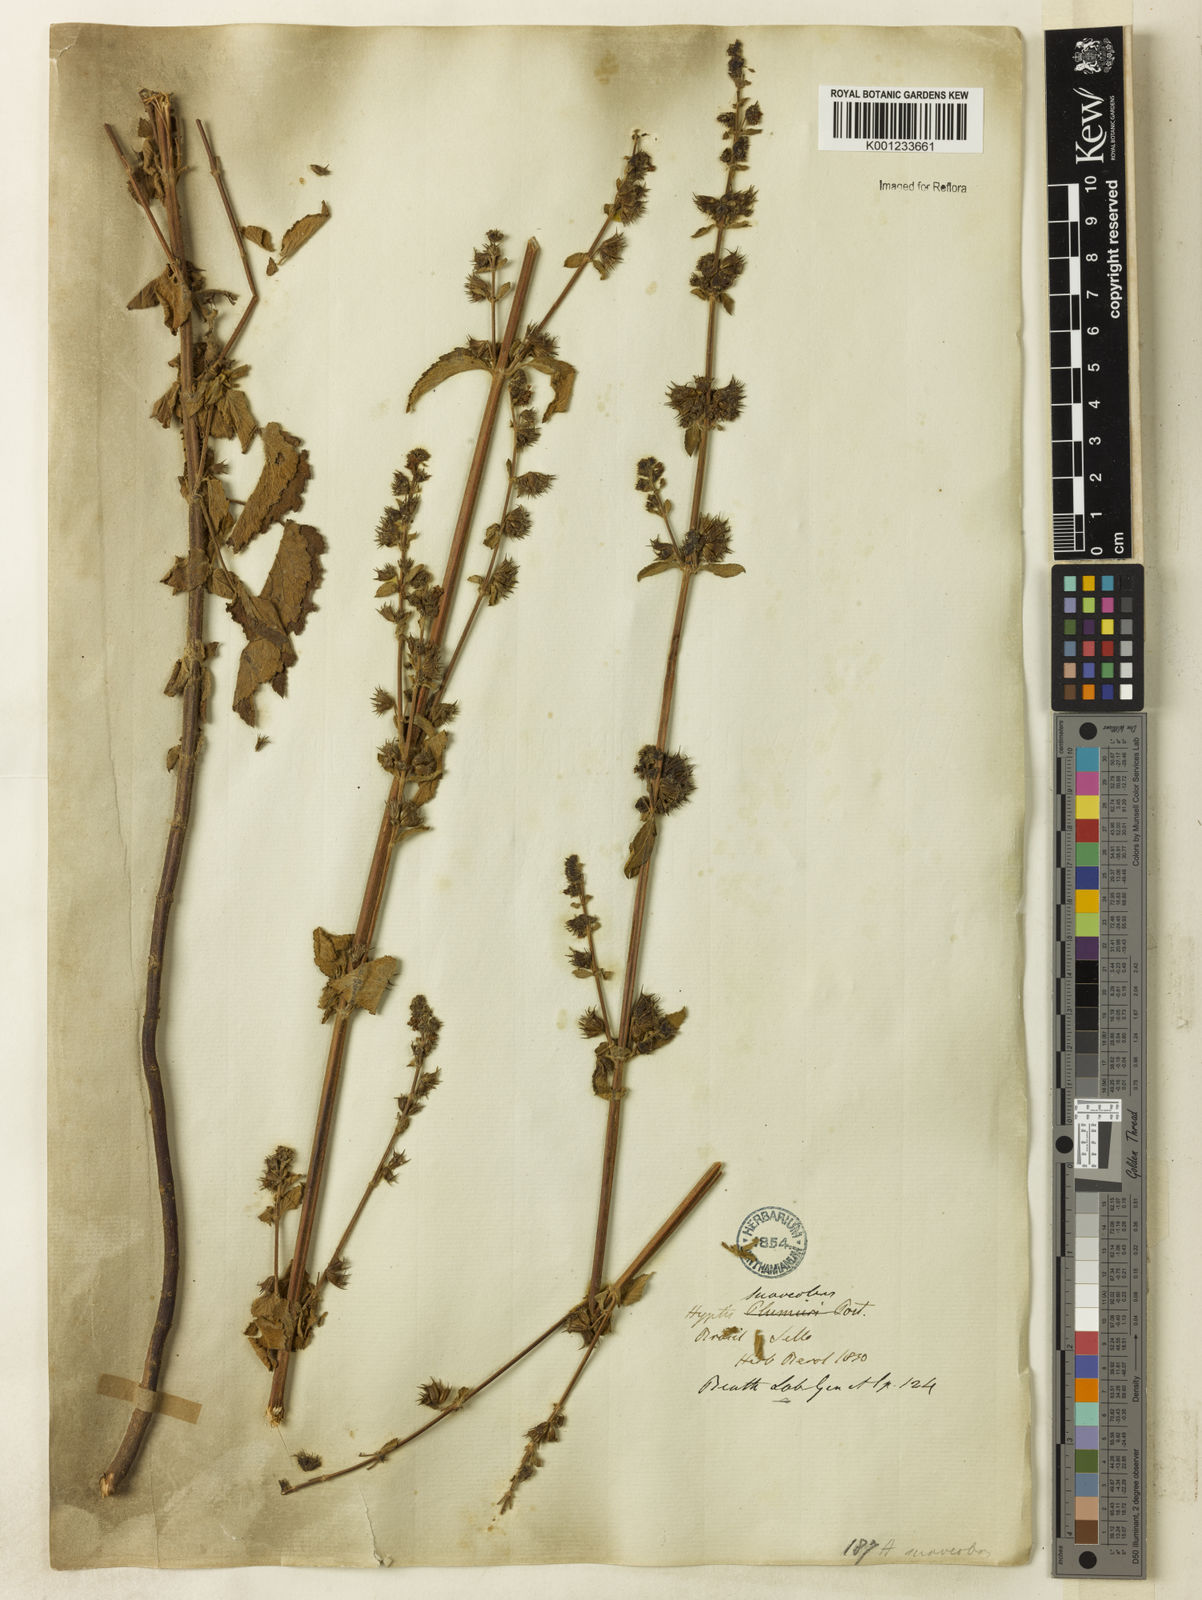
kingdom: Plantae
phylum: Tracheophyta
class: Magnoliopsida
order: Lamiales
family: Lamiaceae
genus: Mesosphaerum
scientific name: Mesosphaerum suaveolens
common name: Pignut
